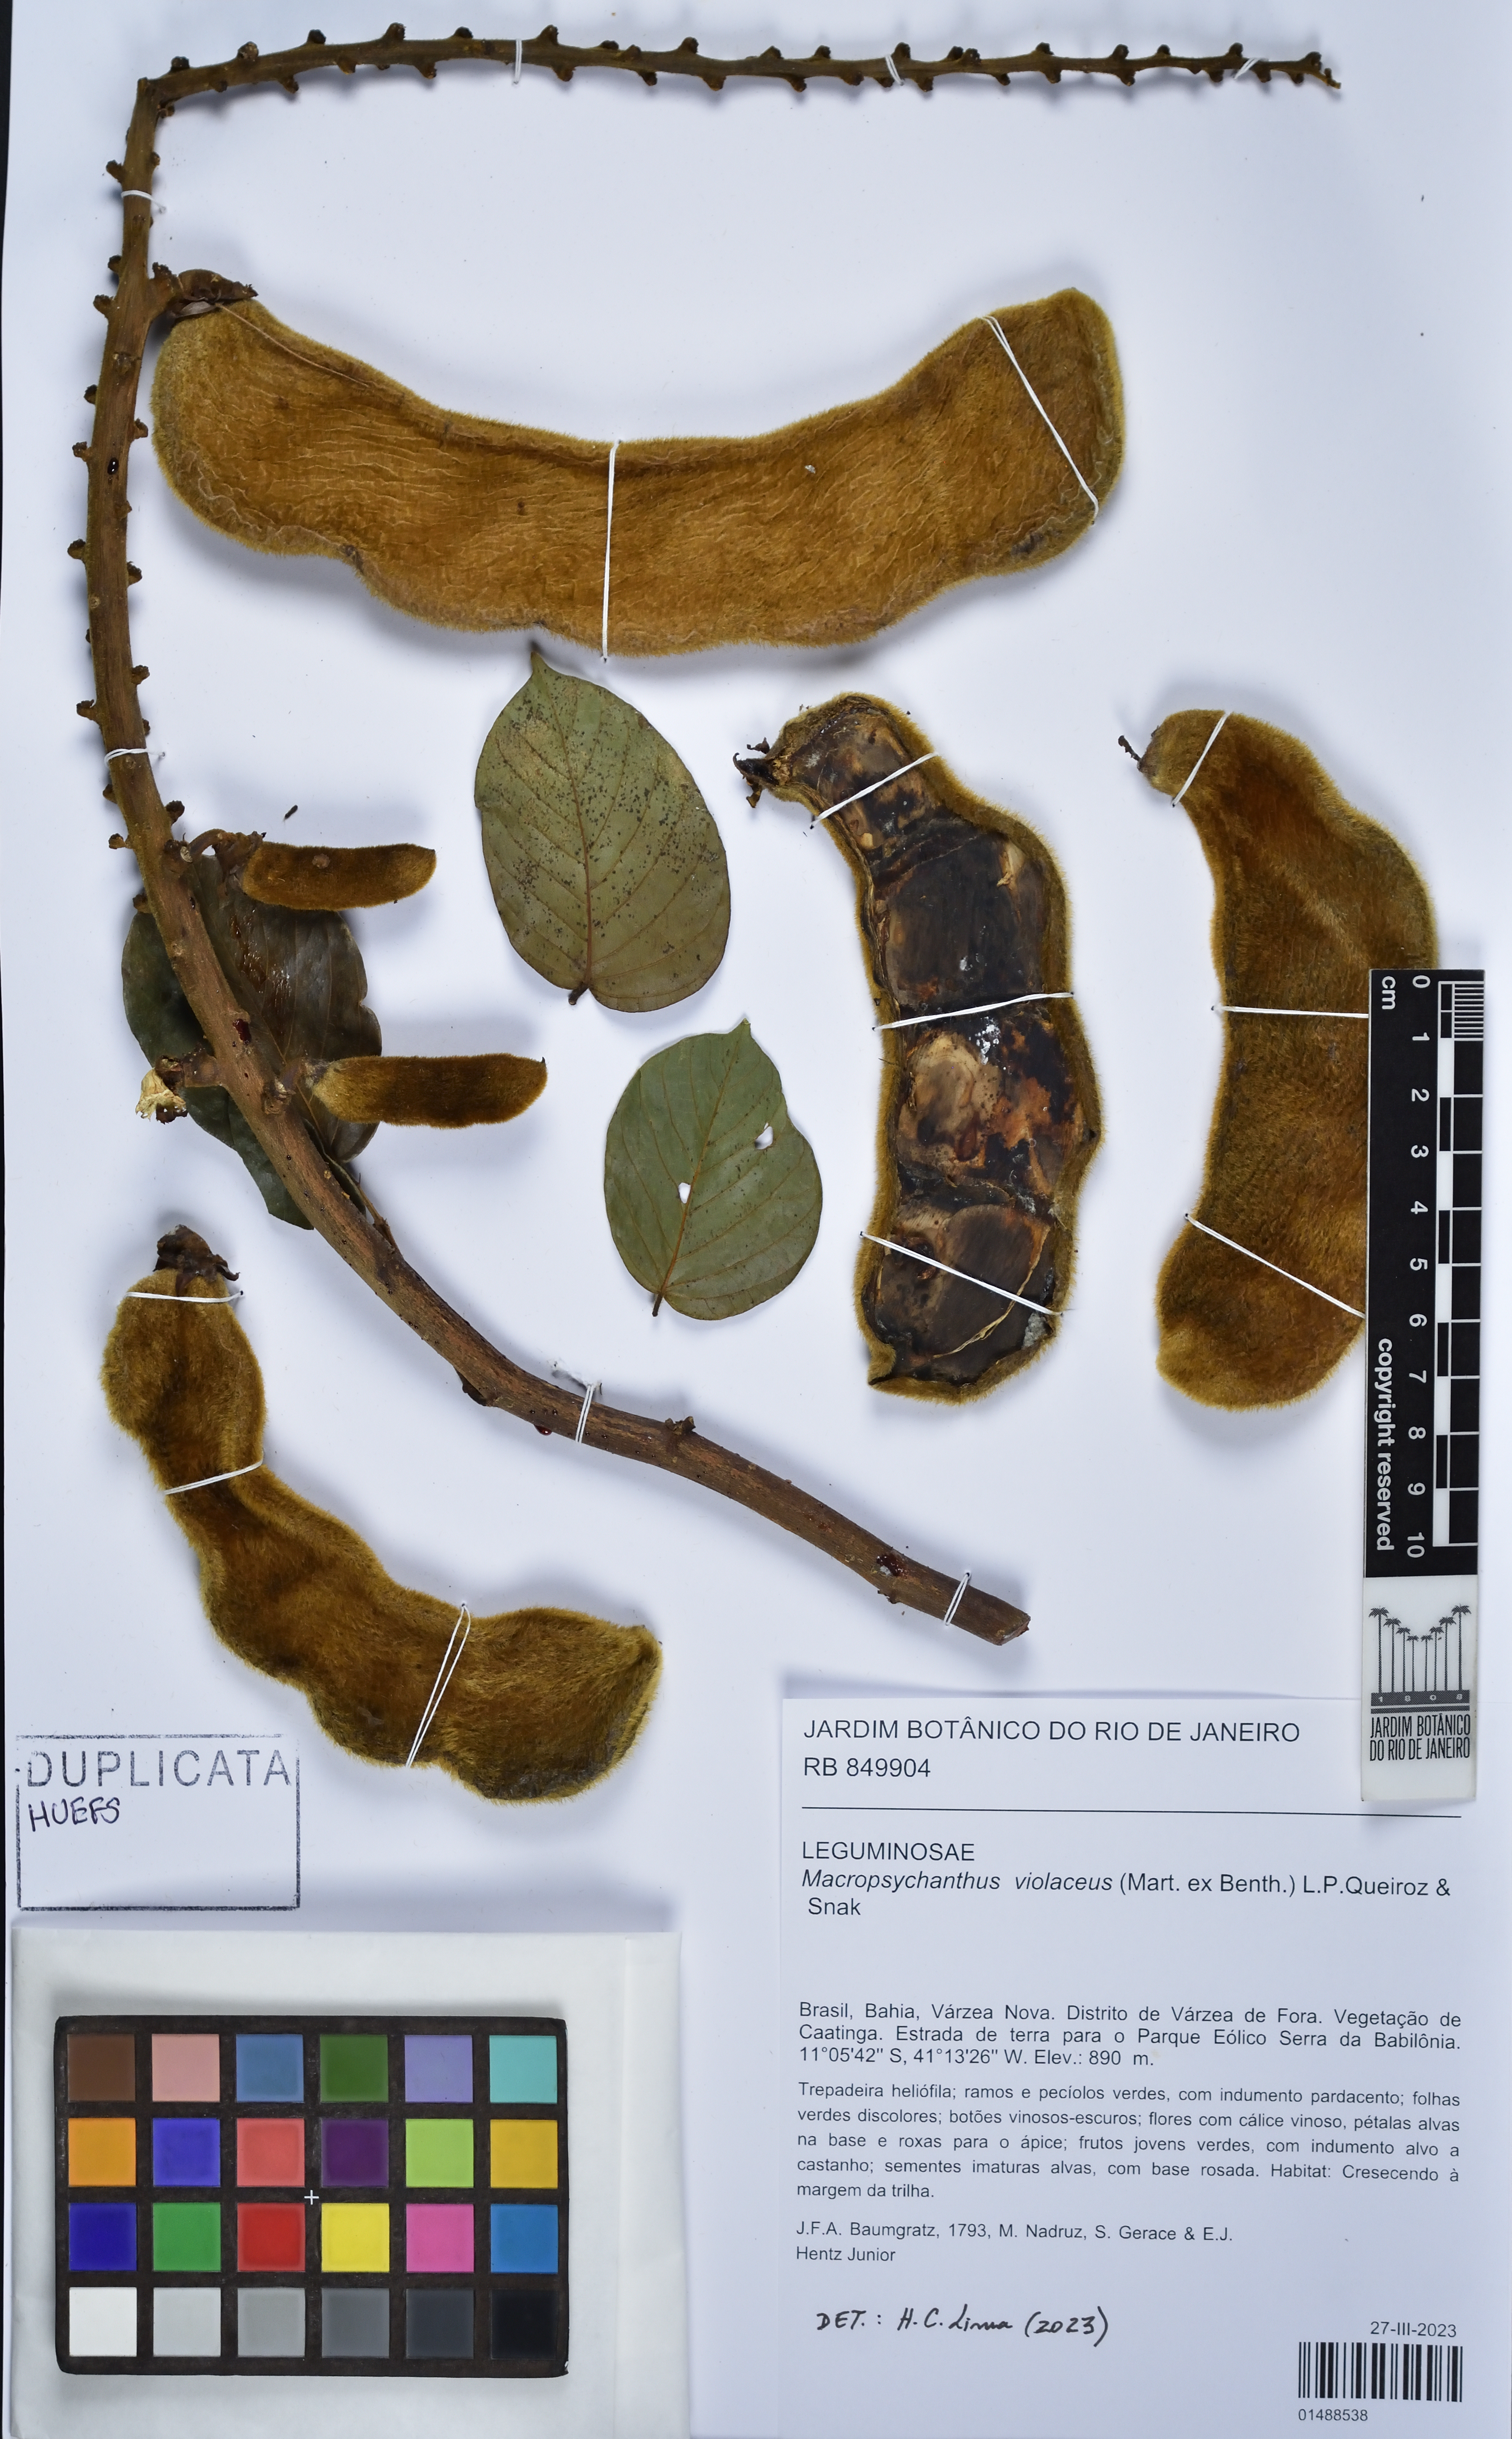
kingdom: Plantae
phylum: Tracheophyta
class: Magnoliopsida
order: Fabales
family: Fabaceae
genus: Macropsychanthus
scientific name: Macropsychanthus violaceus
